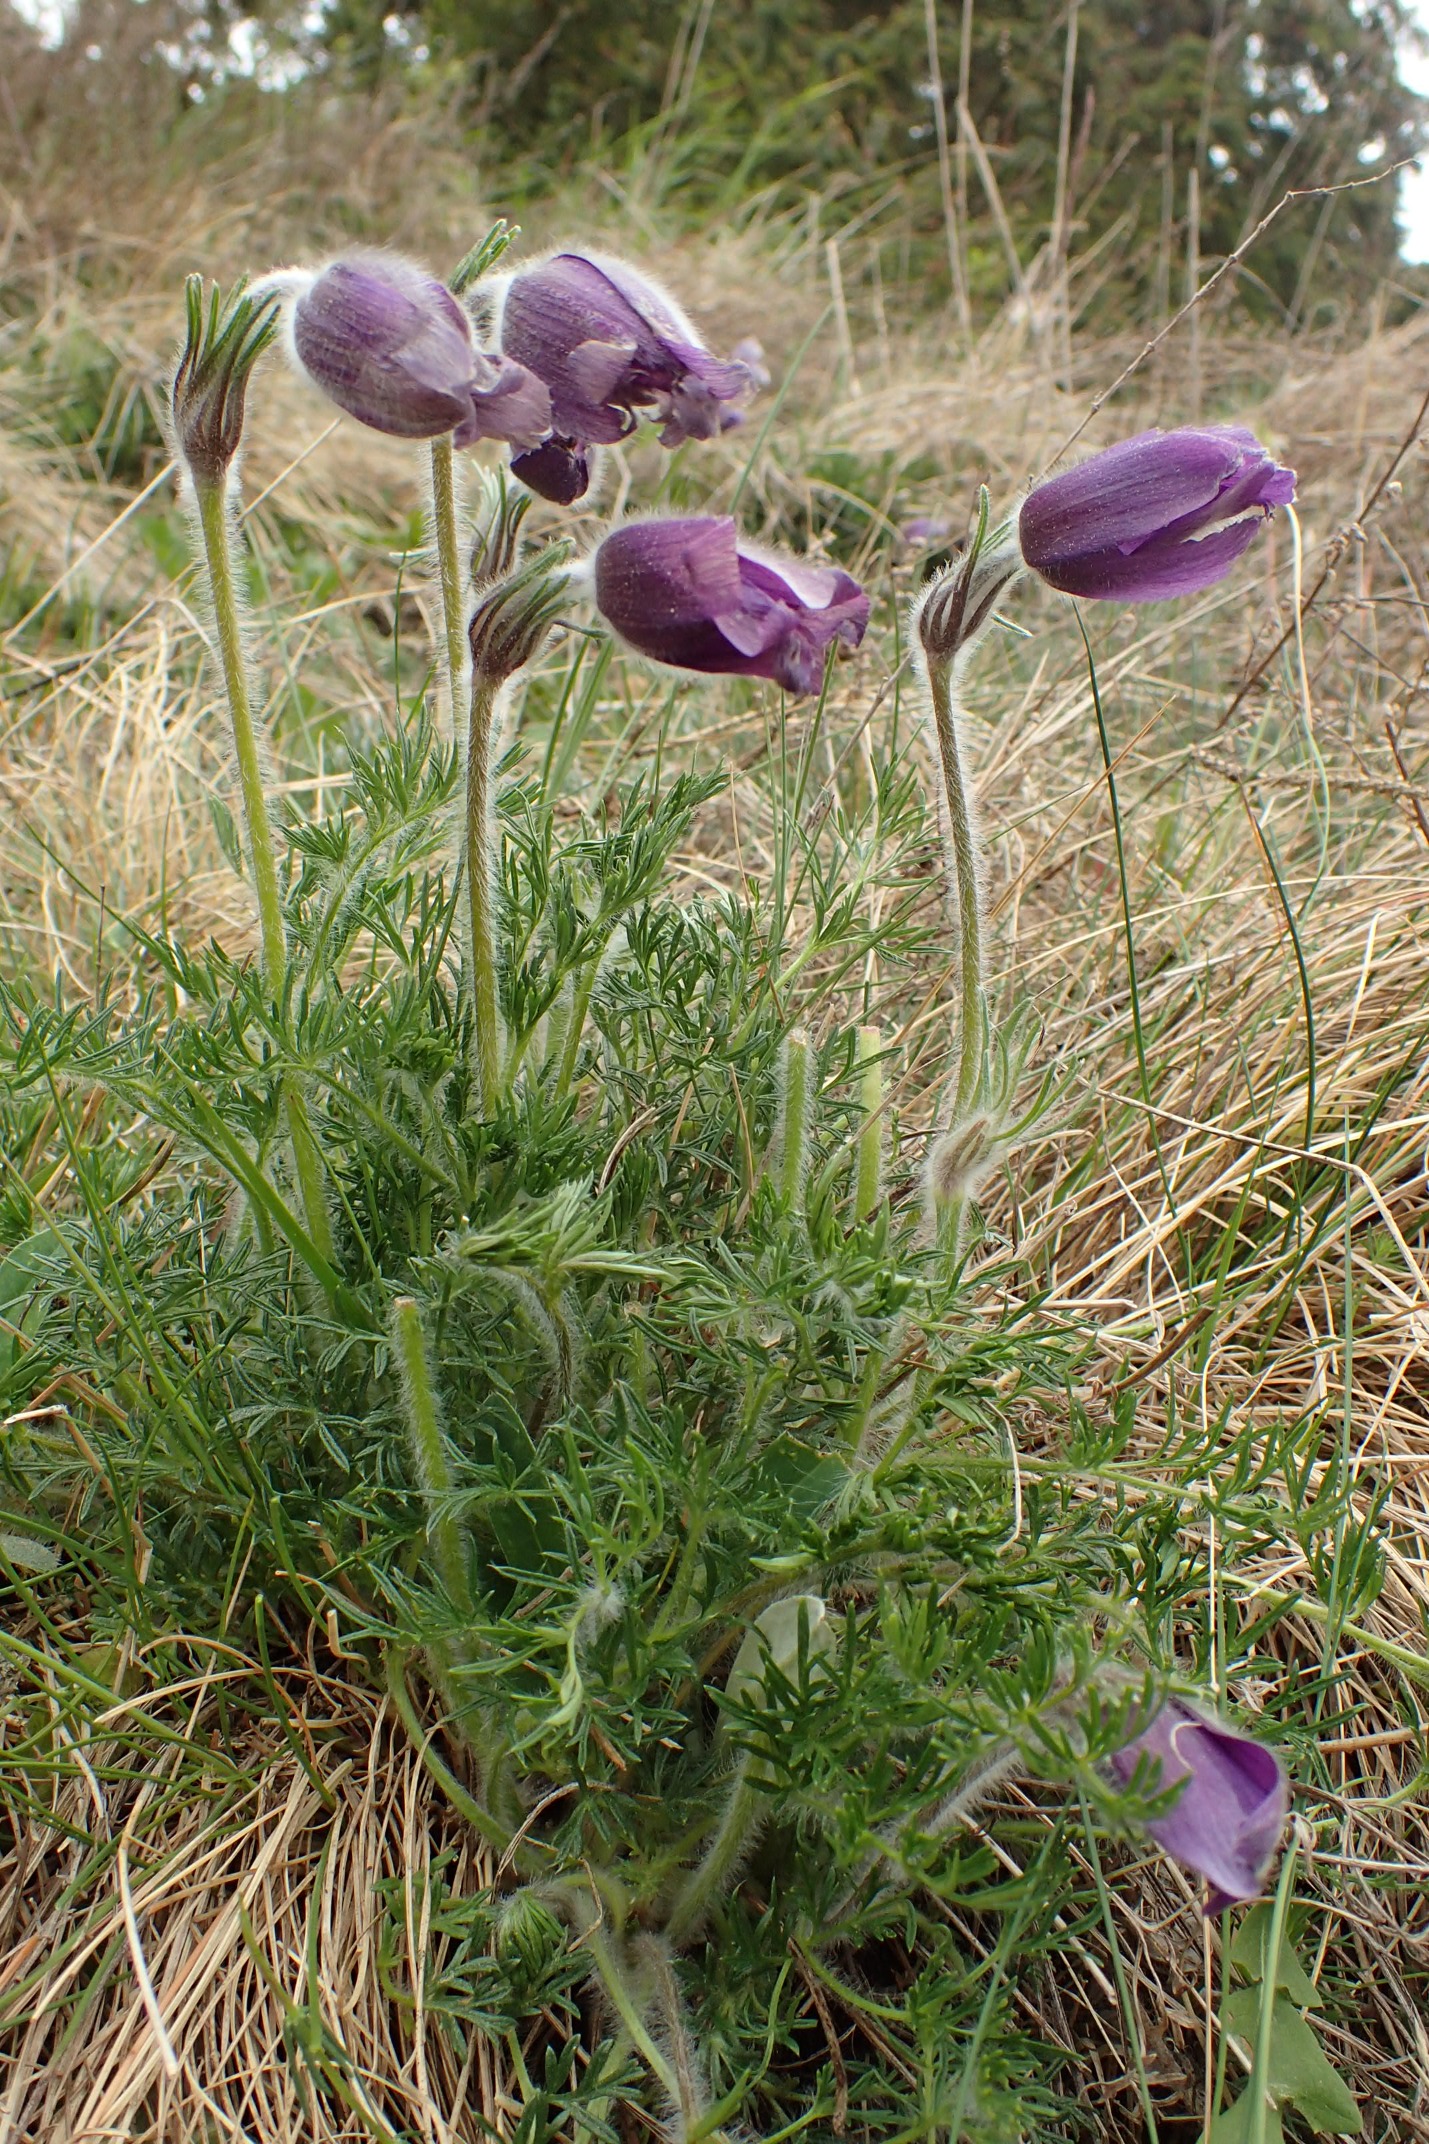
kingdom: Plantae
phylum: Tracheophyta
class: Magnoliopsida
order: Ranunculales
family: Ranunculaceae
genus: Pulsatilla
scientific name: Pulsatilla vulgaris
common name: Opret kobjælde
